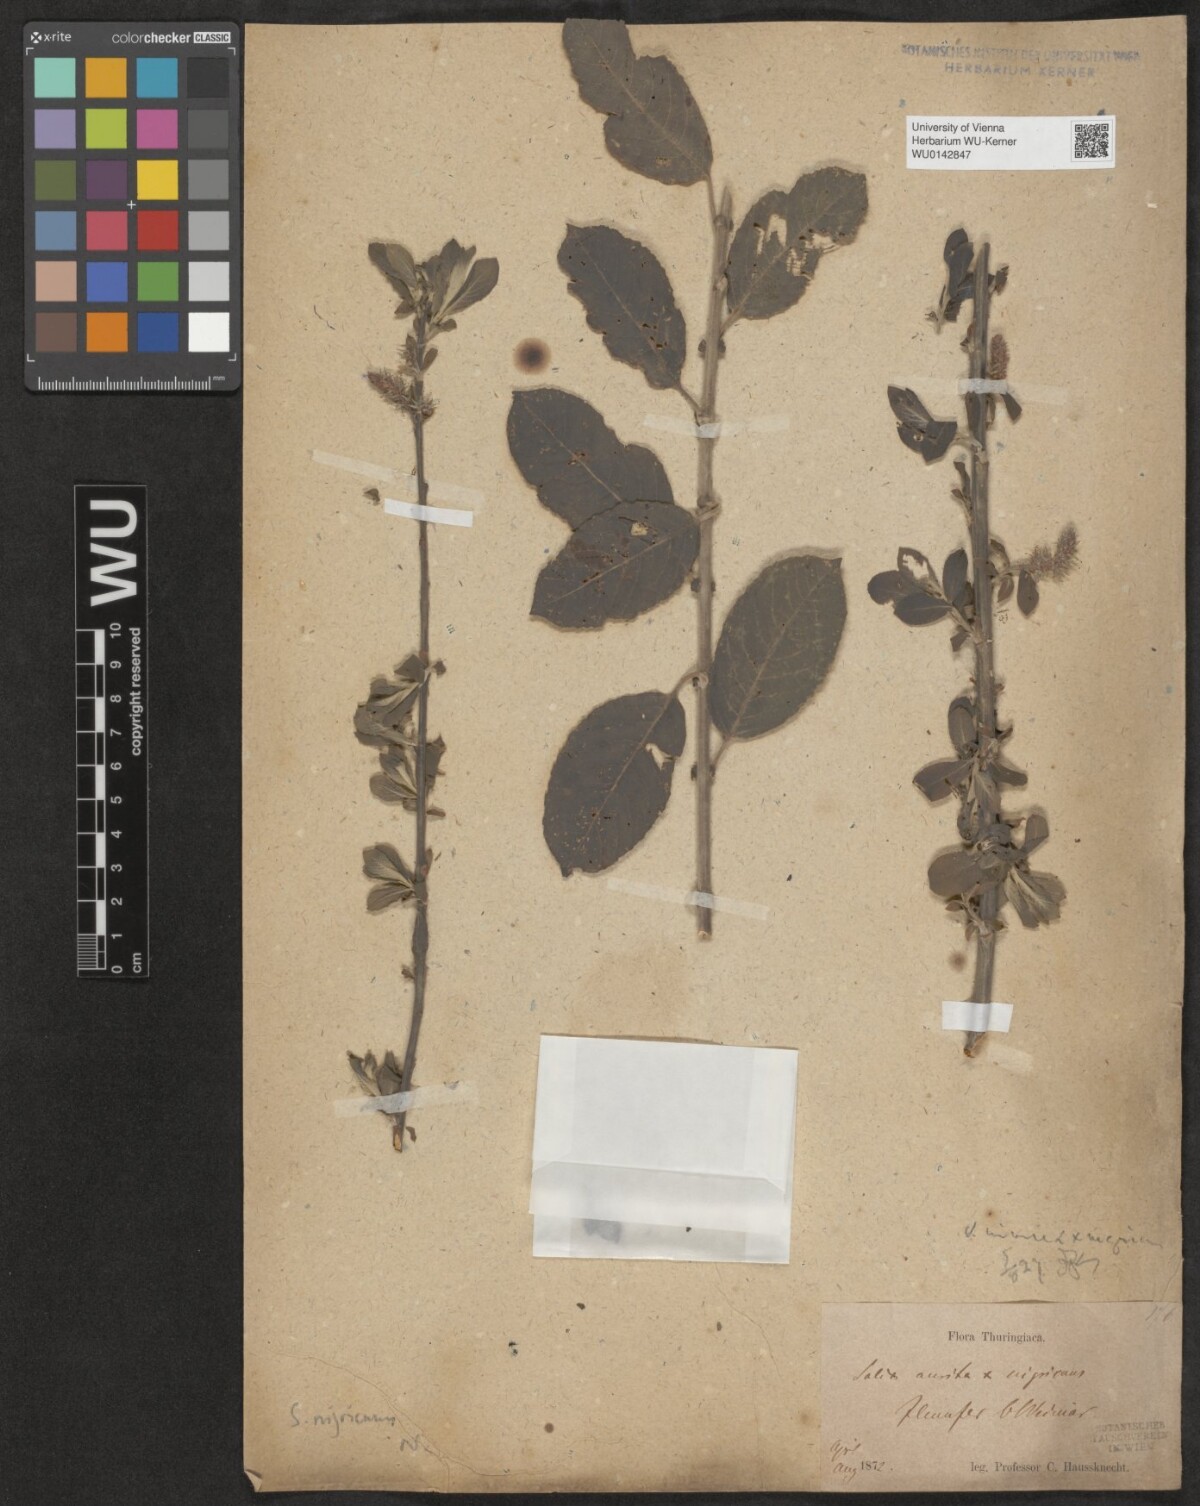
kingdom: Plantae
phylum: Tracheophyta
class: Magnoliopsida
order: Malpighiales
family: Salicaceae
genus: Salix
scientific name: Salix myrsinifolia
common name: Dark-leaved willow
